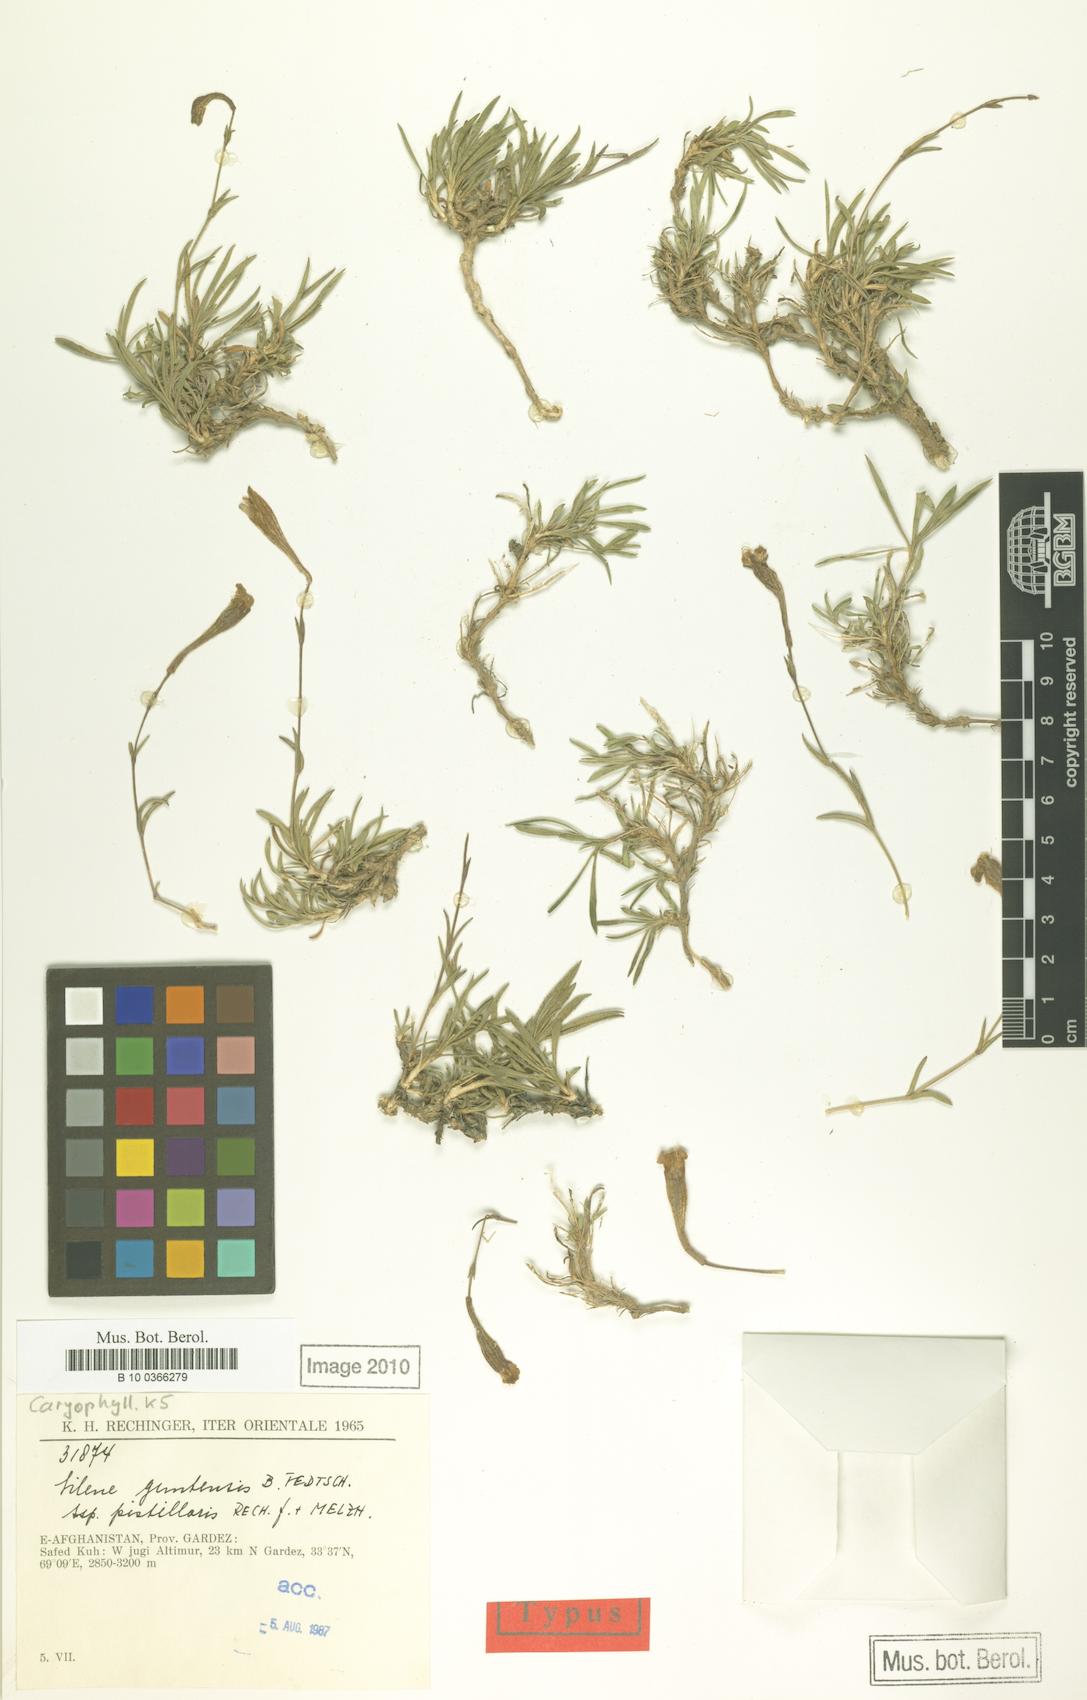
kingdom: Plantae
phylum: Tracheophyta
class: Magnoliopsida
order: Caryophyllales
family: Caryophyllaceae
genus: Silene
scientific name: Silene guntensis
